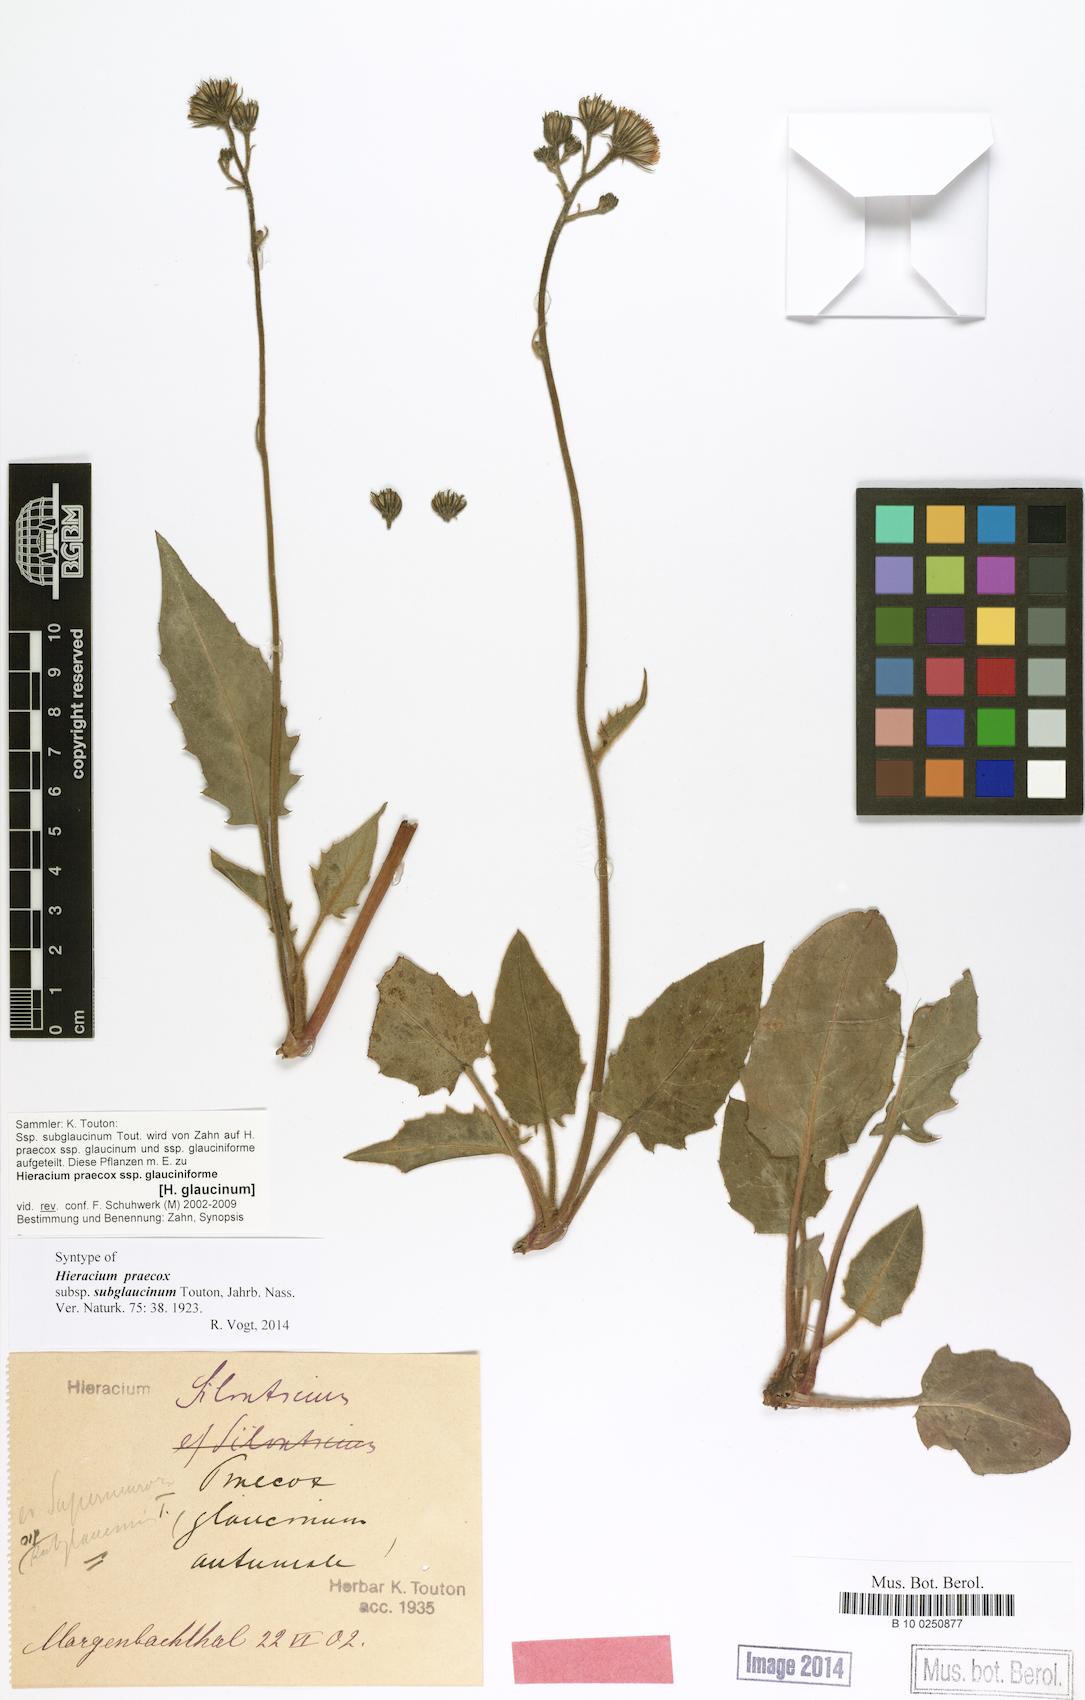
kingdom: Plantae
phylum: Tracheophyta
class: Magnoliopsida
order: Asterales
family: Asteraceae
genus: Hieracium
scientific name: Hieracium glaucinum
